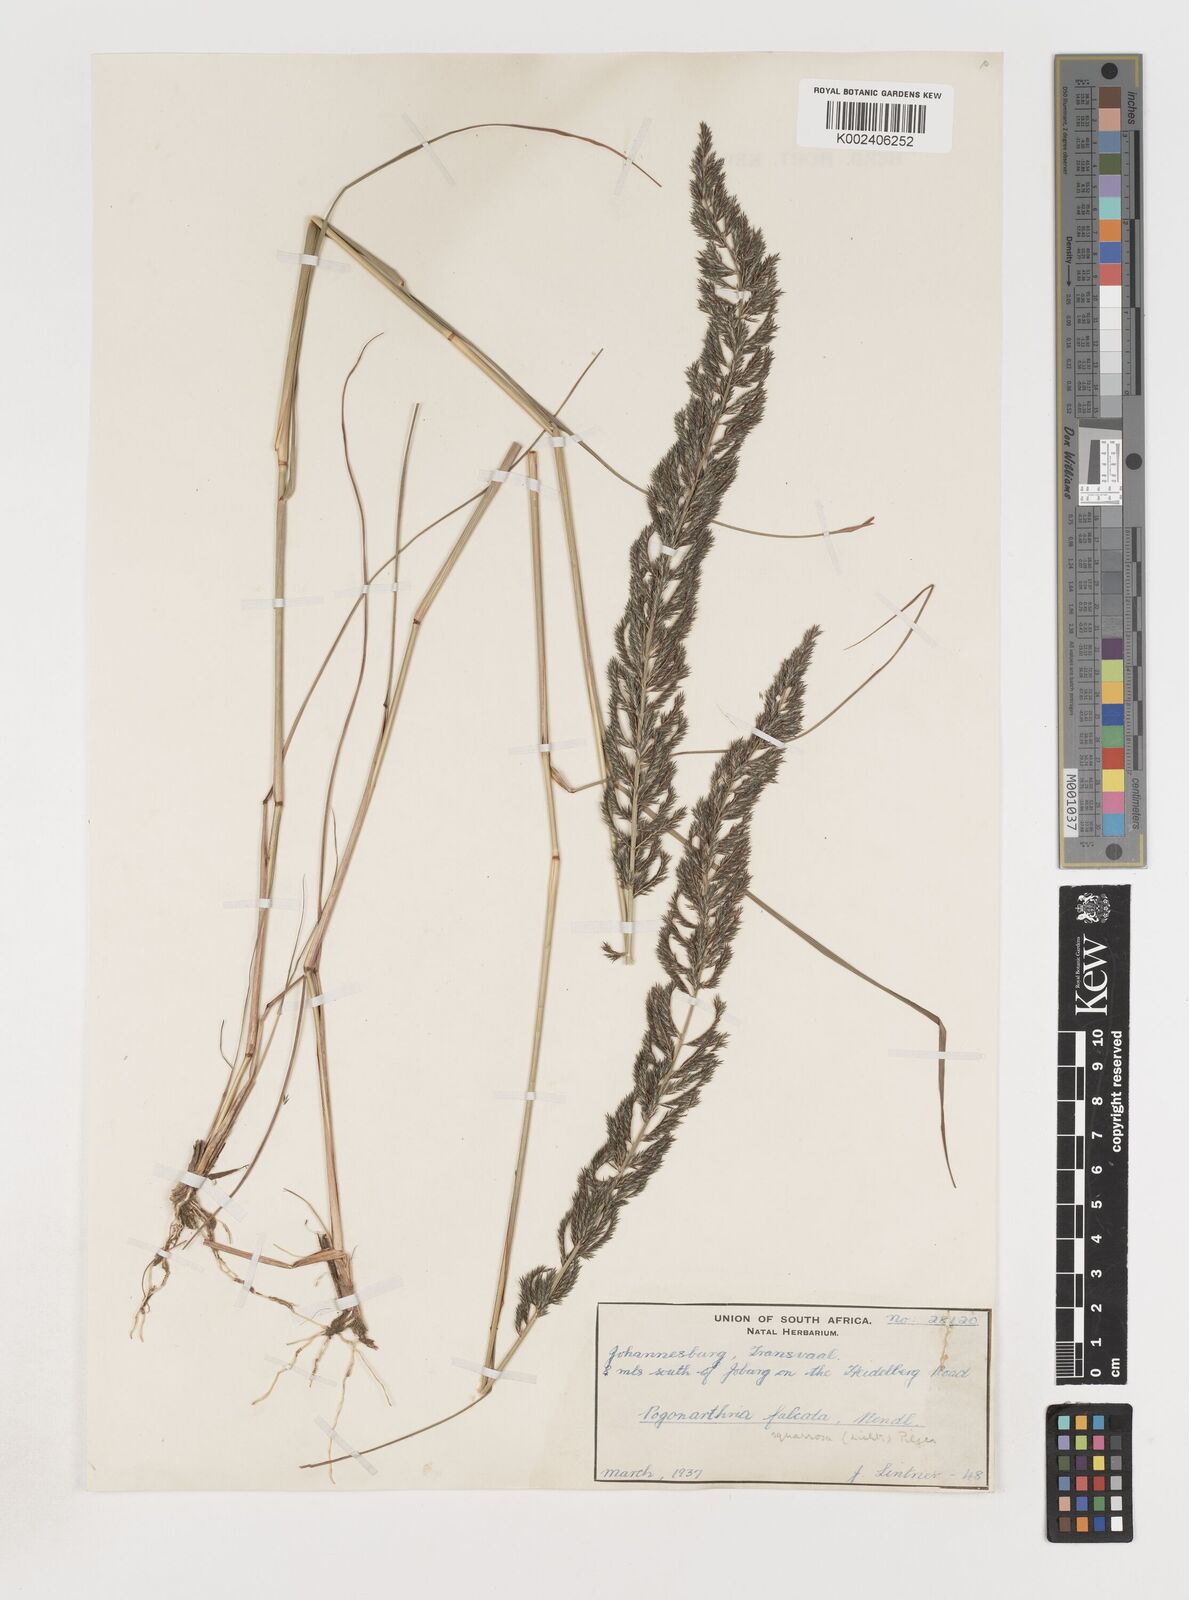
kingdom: Plantae
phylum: Tracheophyta
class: Liliopsida
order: Poales
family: Poaceae
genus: Pogonarthria
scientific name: Pogonarthria squarrosa
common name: Grass
